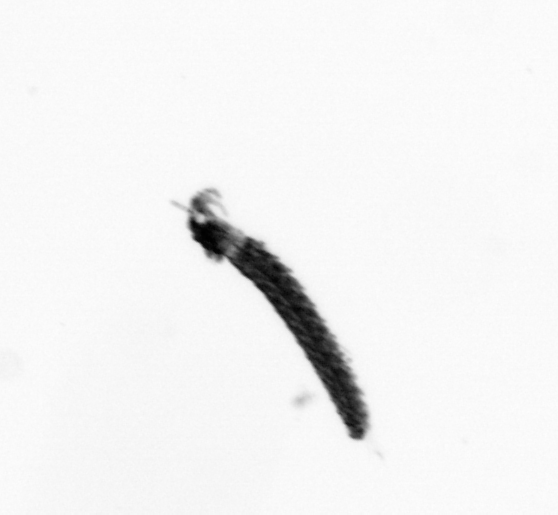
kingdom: Animalia
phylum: Annelida
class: Polychaeta
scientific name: Polychaeta
